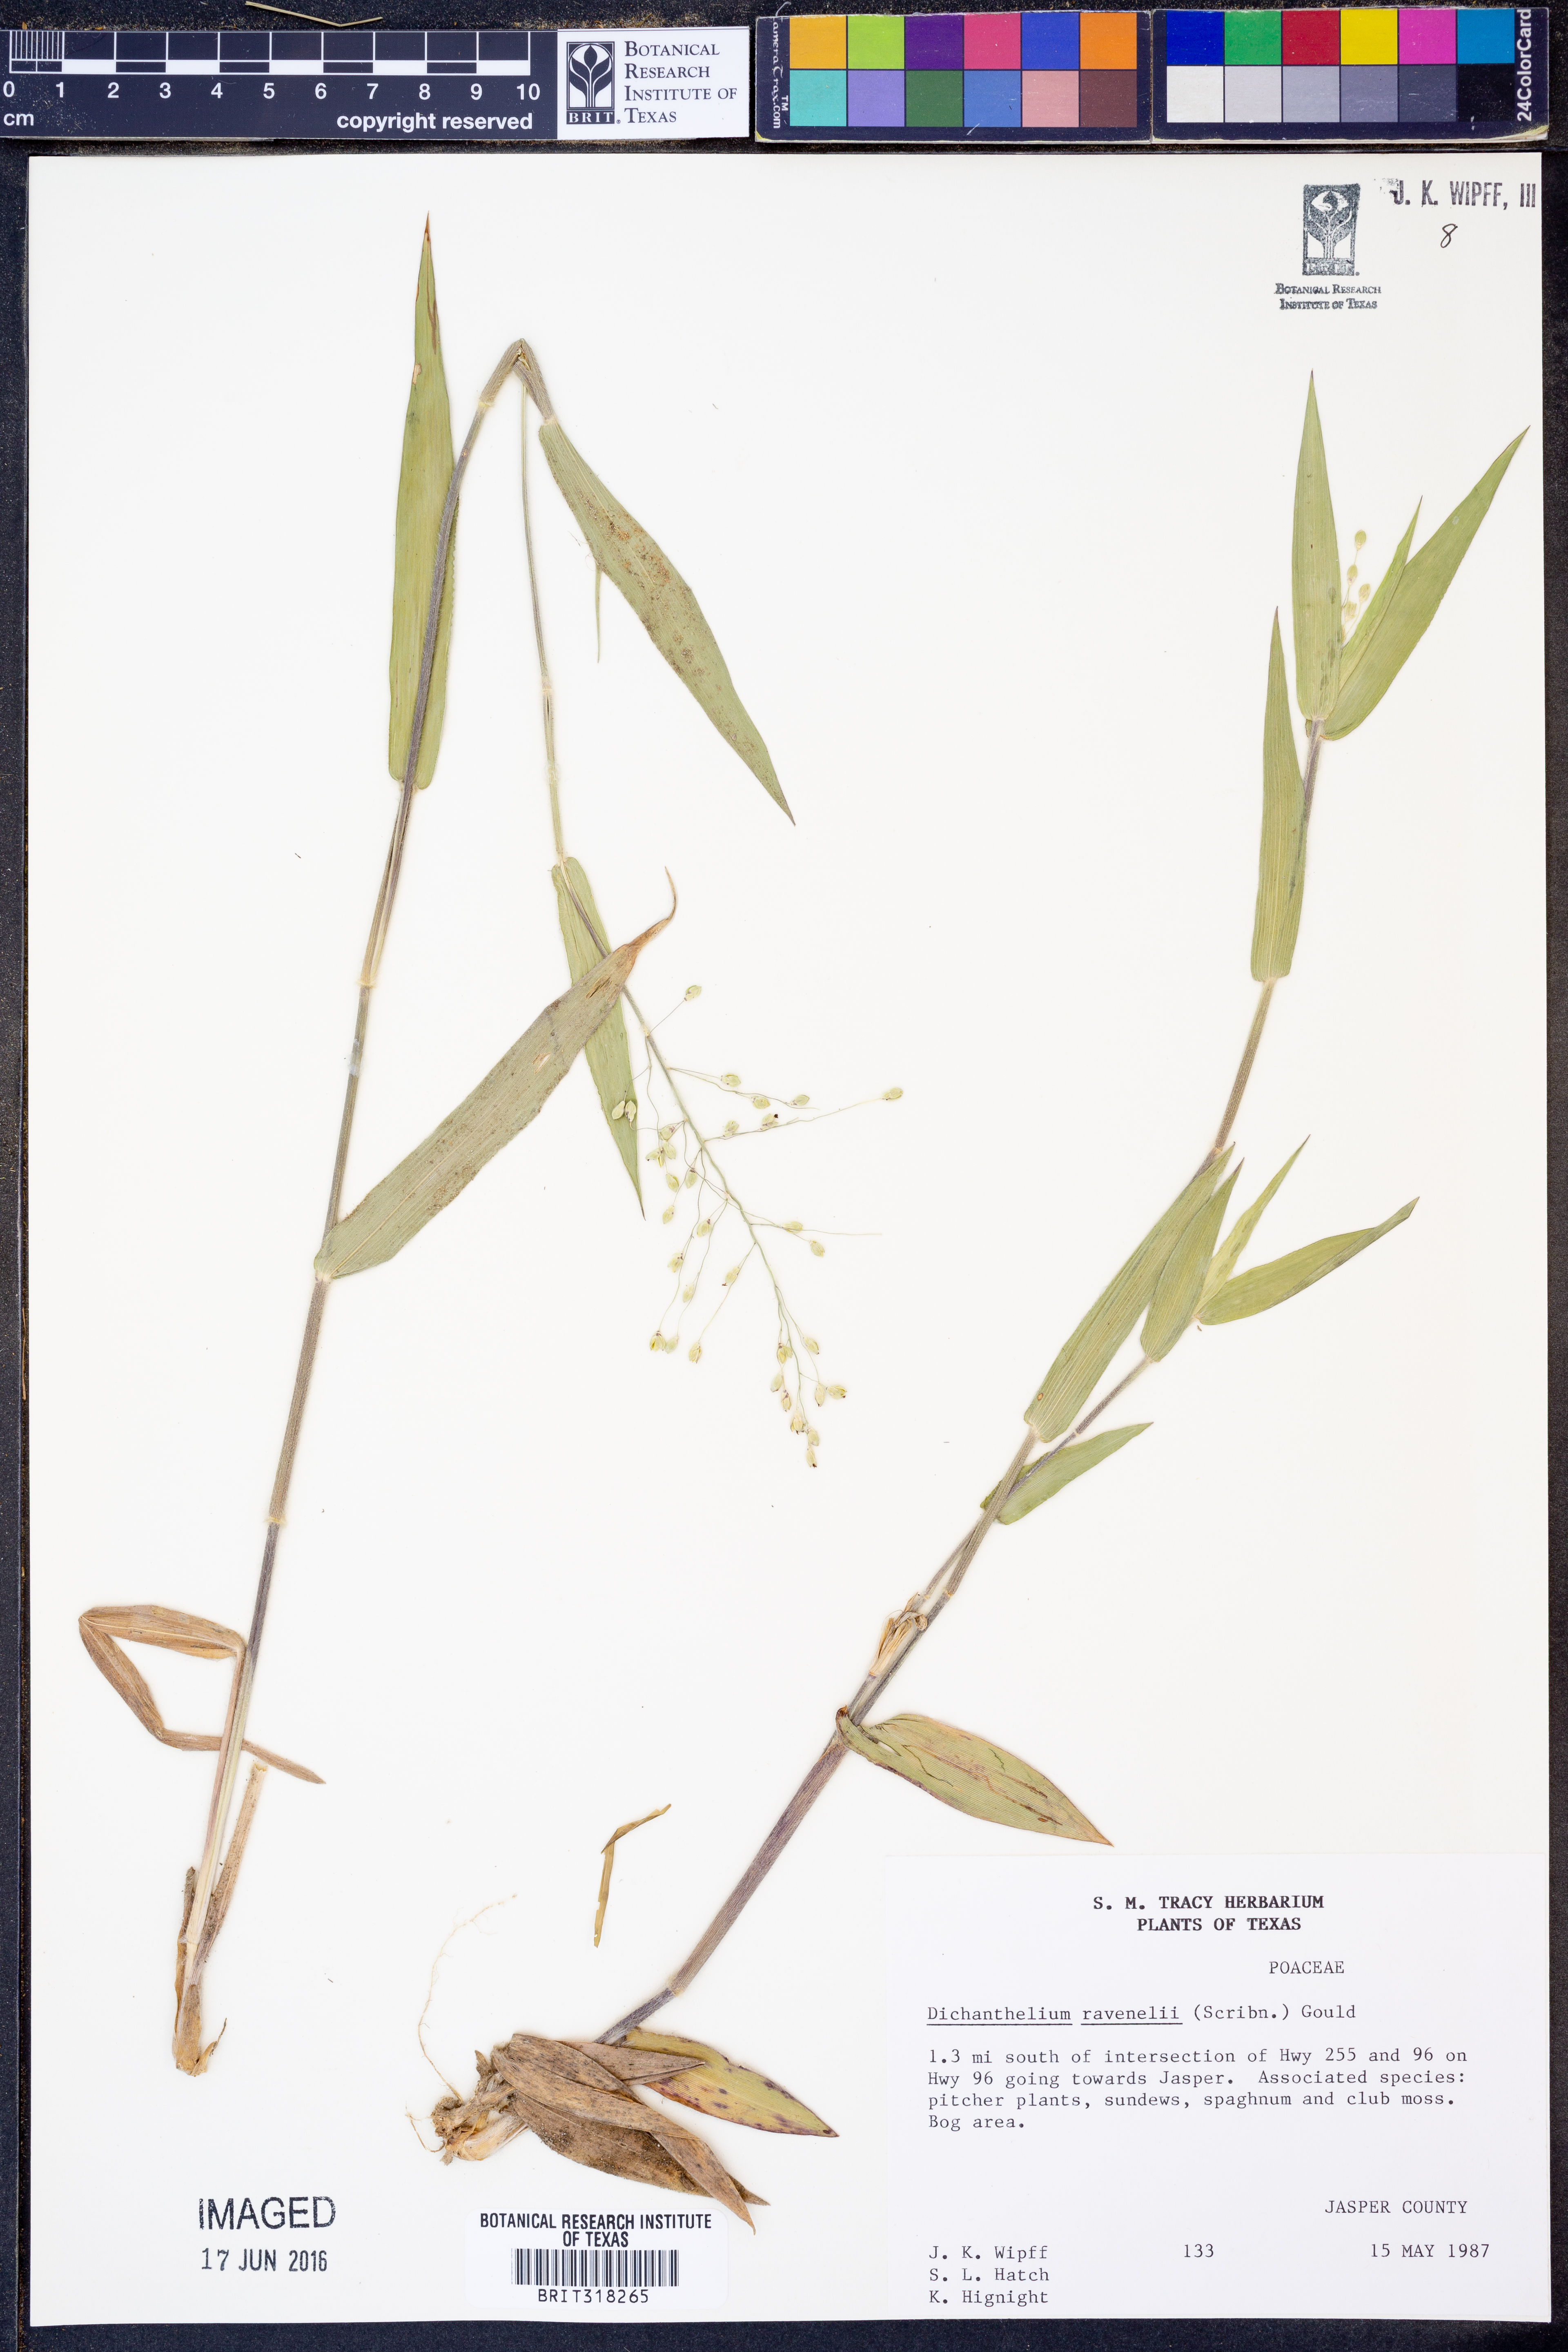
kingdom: Plantae
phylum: Tracheophyta
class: Liliopsida
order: Poales
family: Poaceae
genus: Dichanthelium
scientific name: Dichanthelium ravenelii
